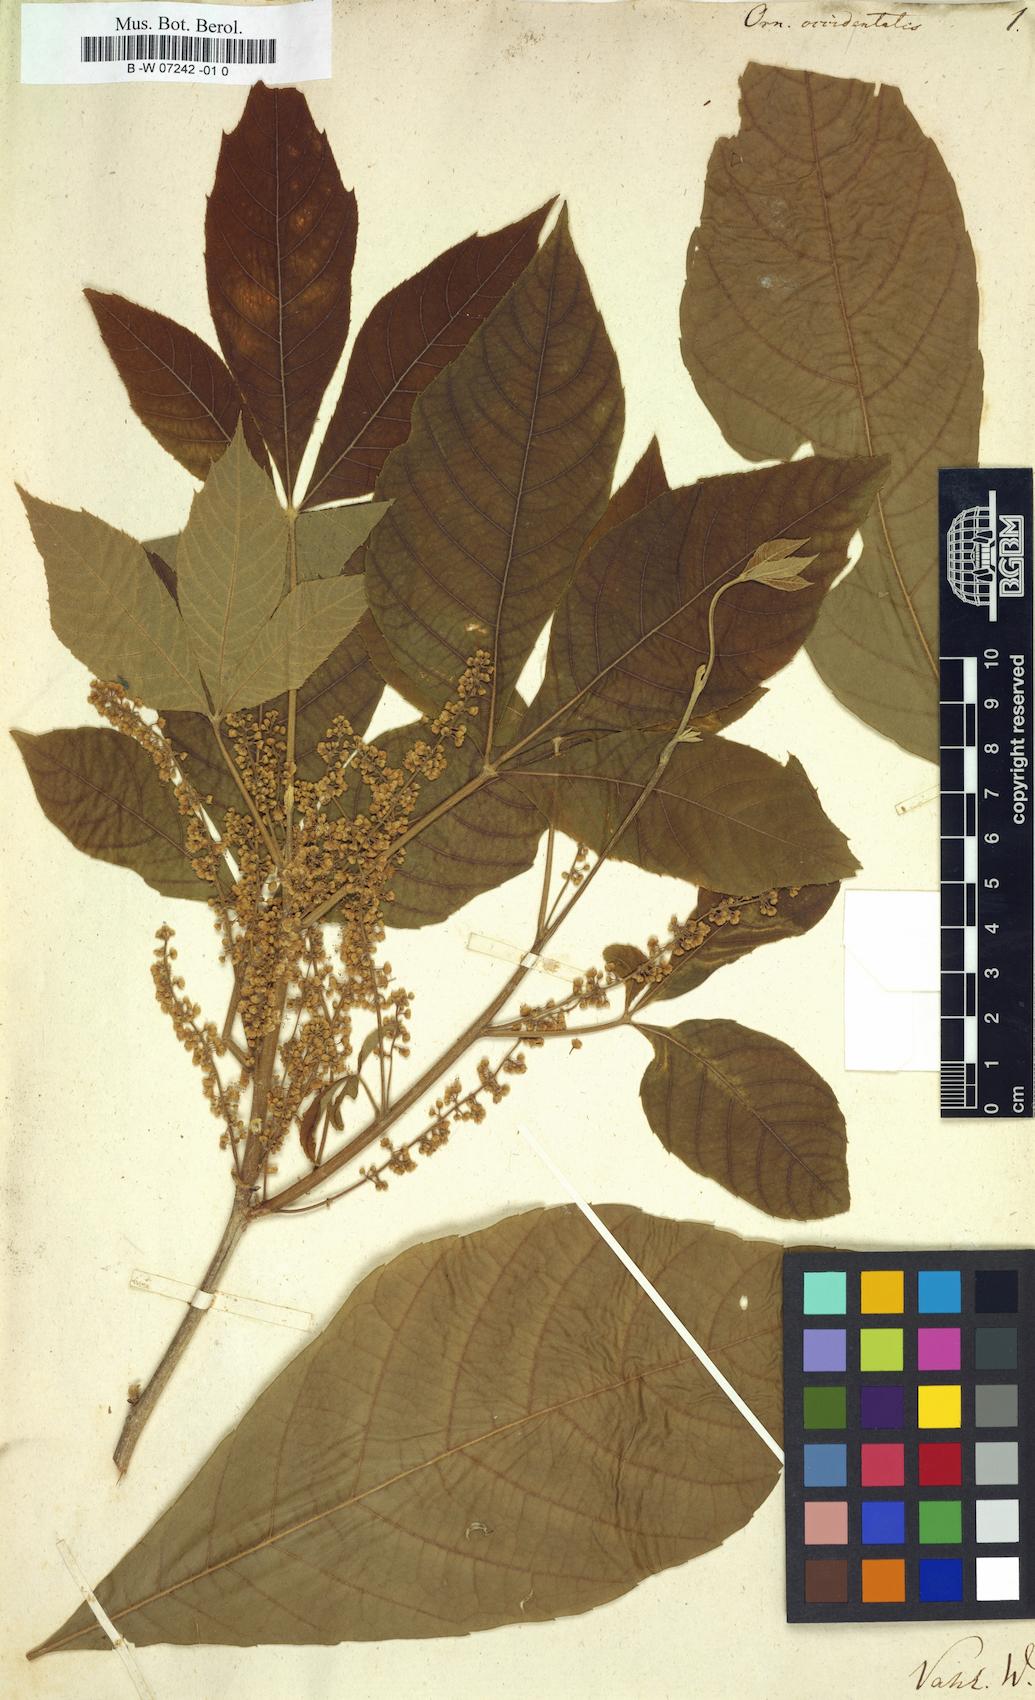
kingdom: Plantae
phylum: Tracheophyta
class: Magnoliopsida
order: Sapindales
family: Sapindaceae
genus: Allophylus
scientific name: Allophylus racemosus
